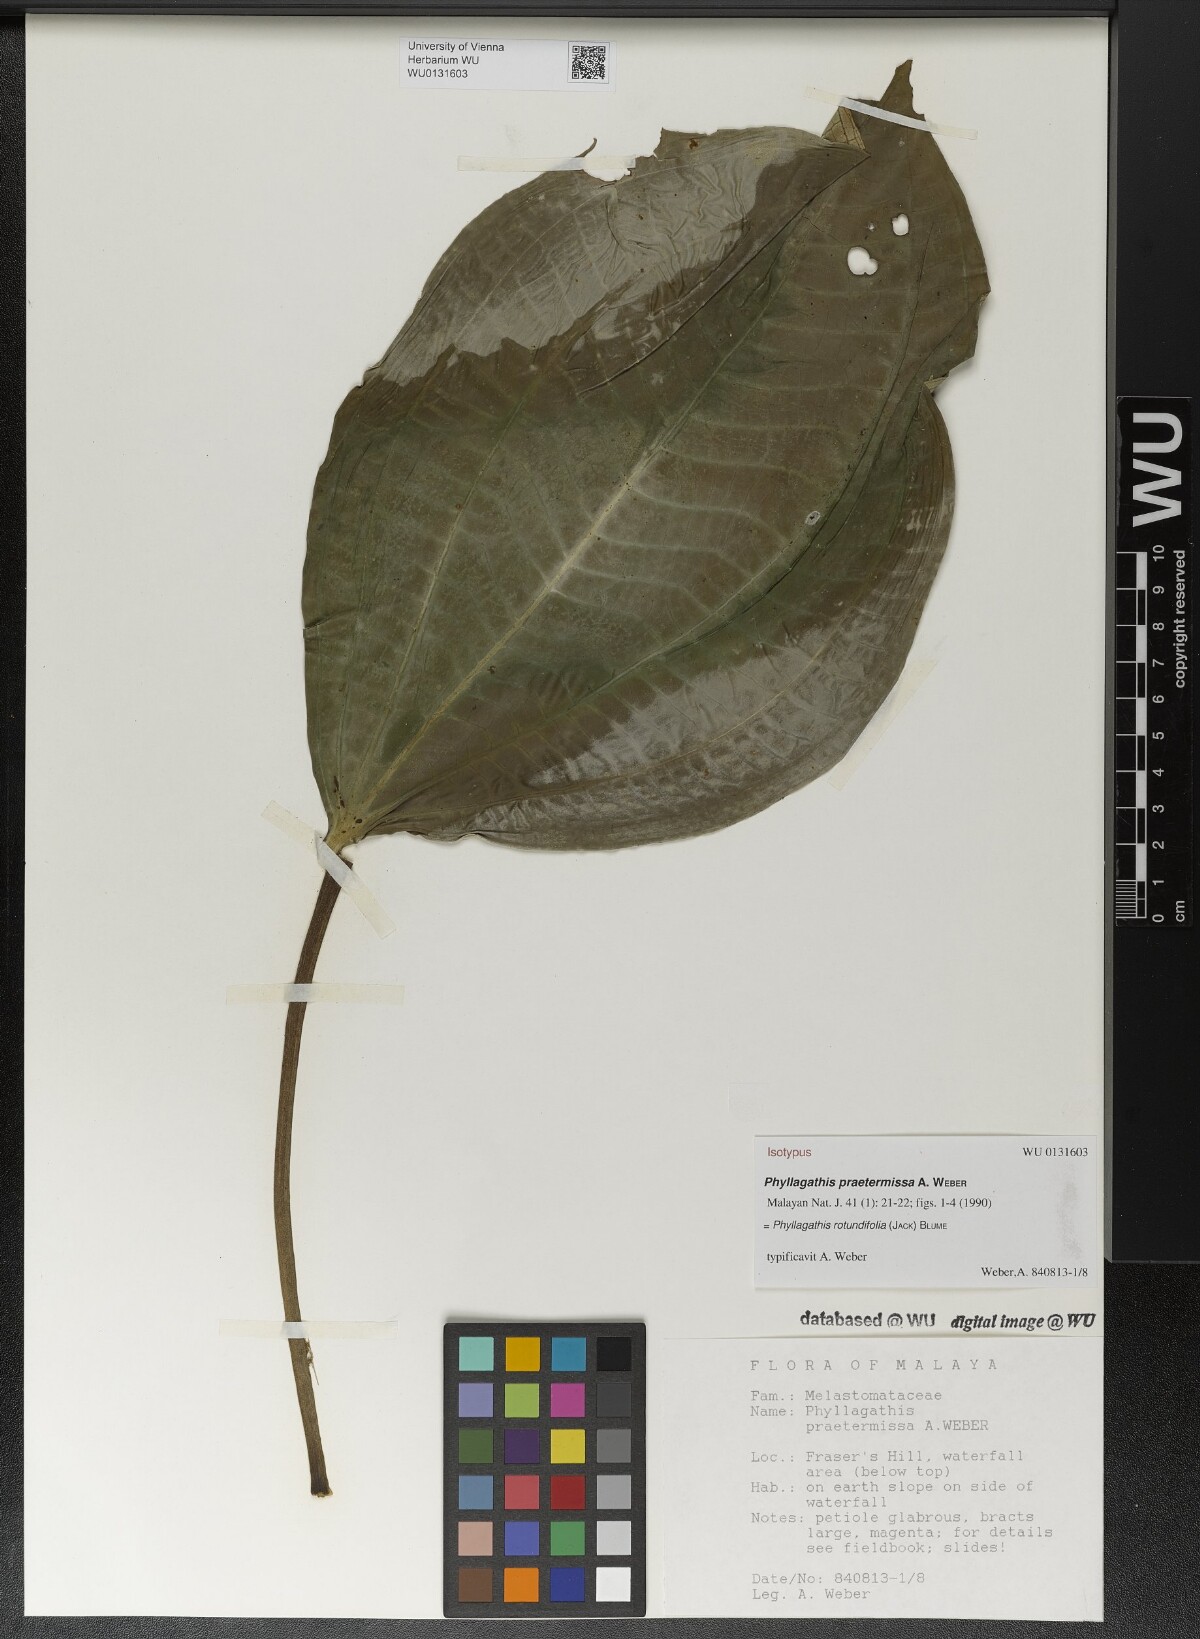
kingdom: Plantae
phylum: Tracheophyta
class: Magnoliopsida
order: Myrtales
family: Melastomataceae
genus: Phyllagathis
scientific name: Phyllagathis rotundifolia
